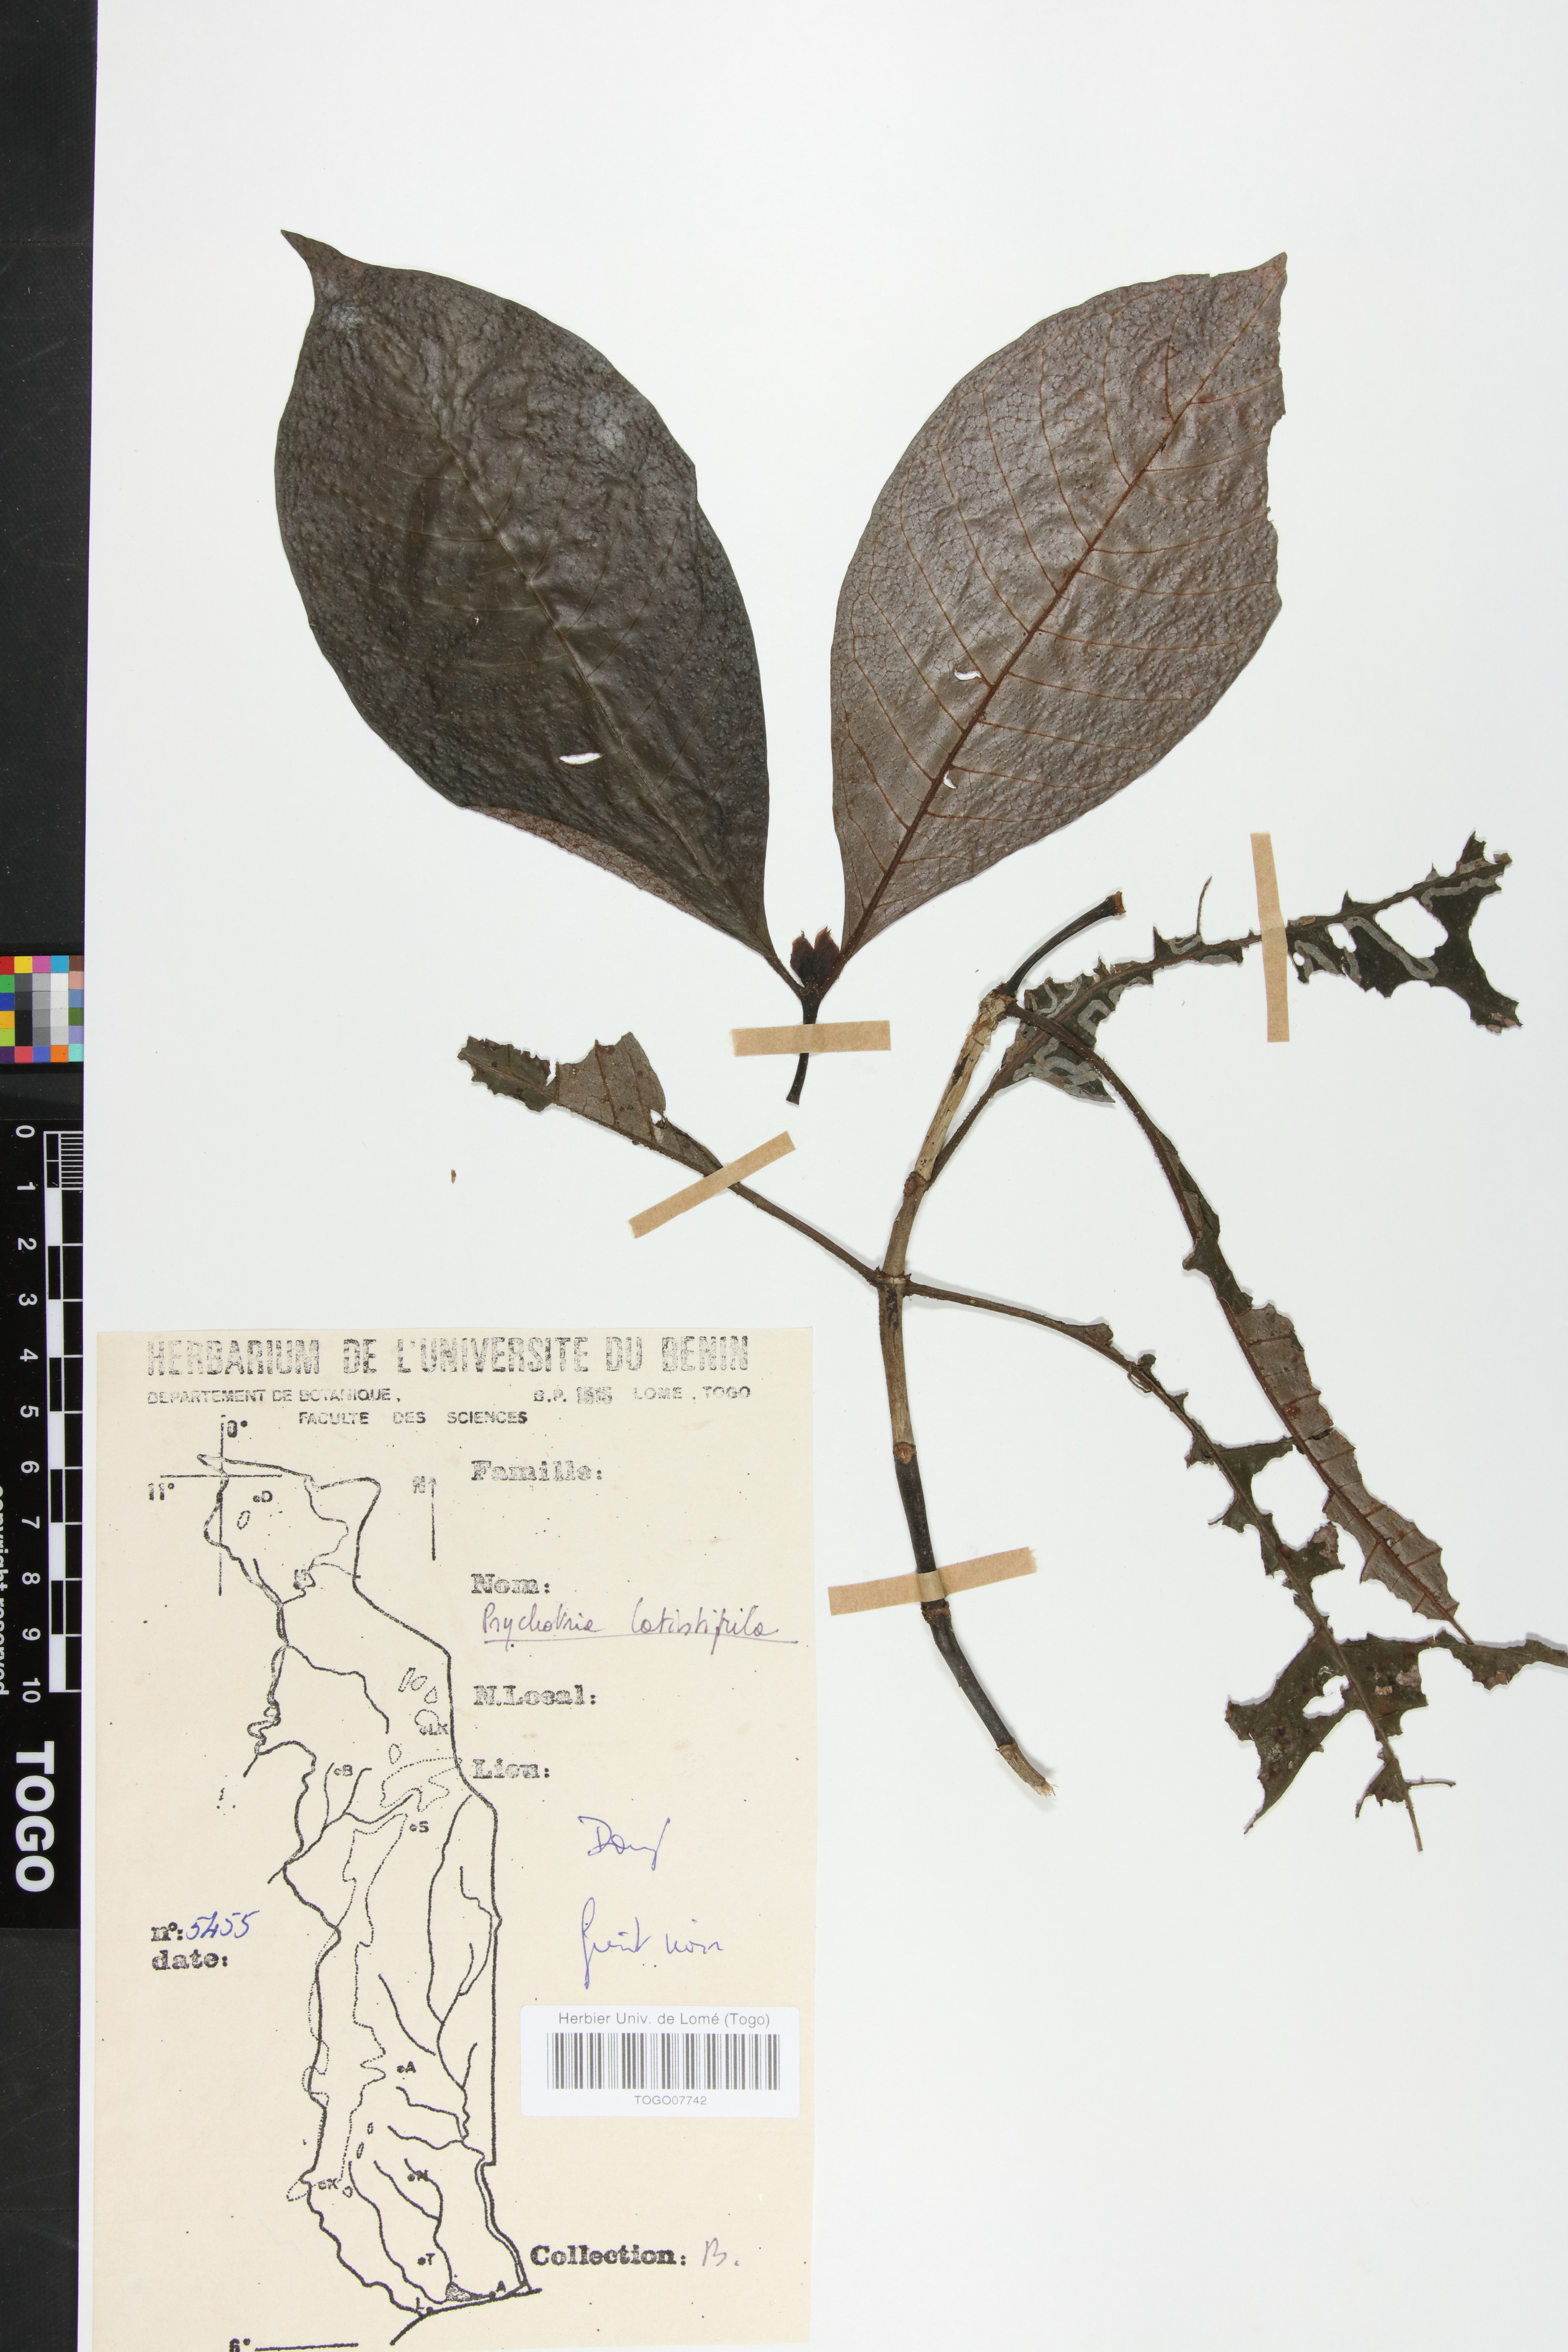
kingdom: Plantae
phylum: Tracheophyta
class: Magnoliopsida
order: Gentianales
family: Rubiaceae
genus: Psychotria
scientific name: Psychotria latistipula
